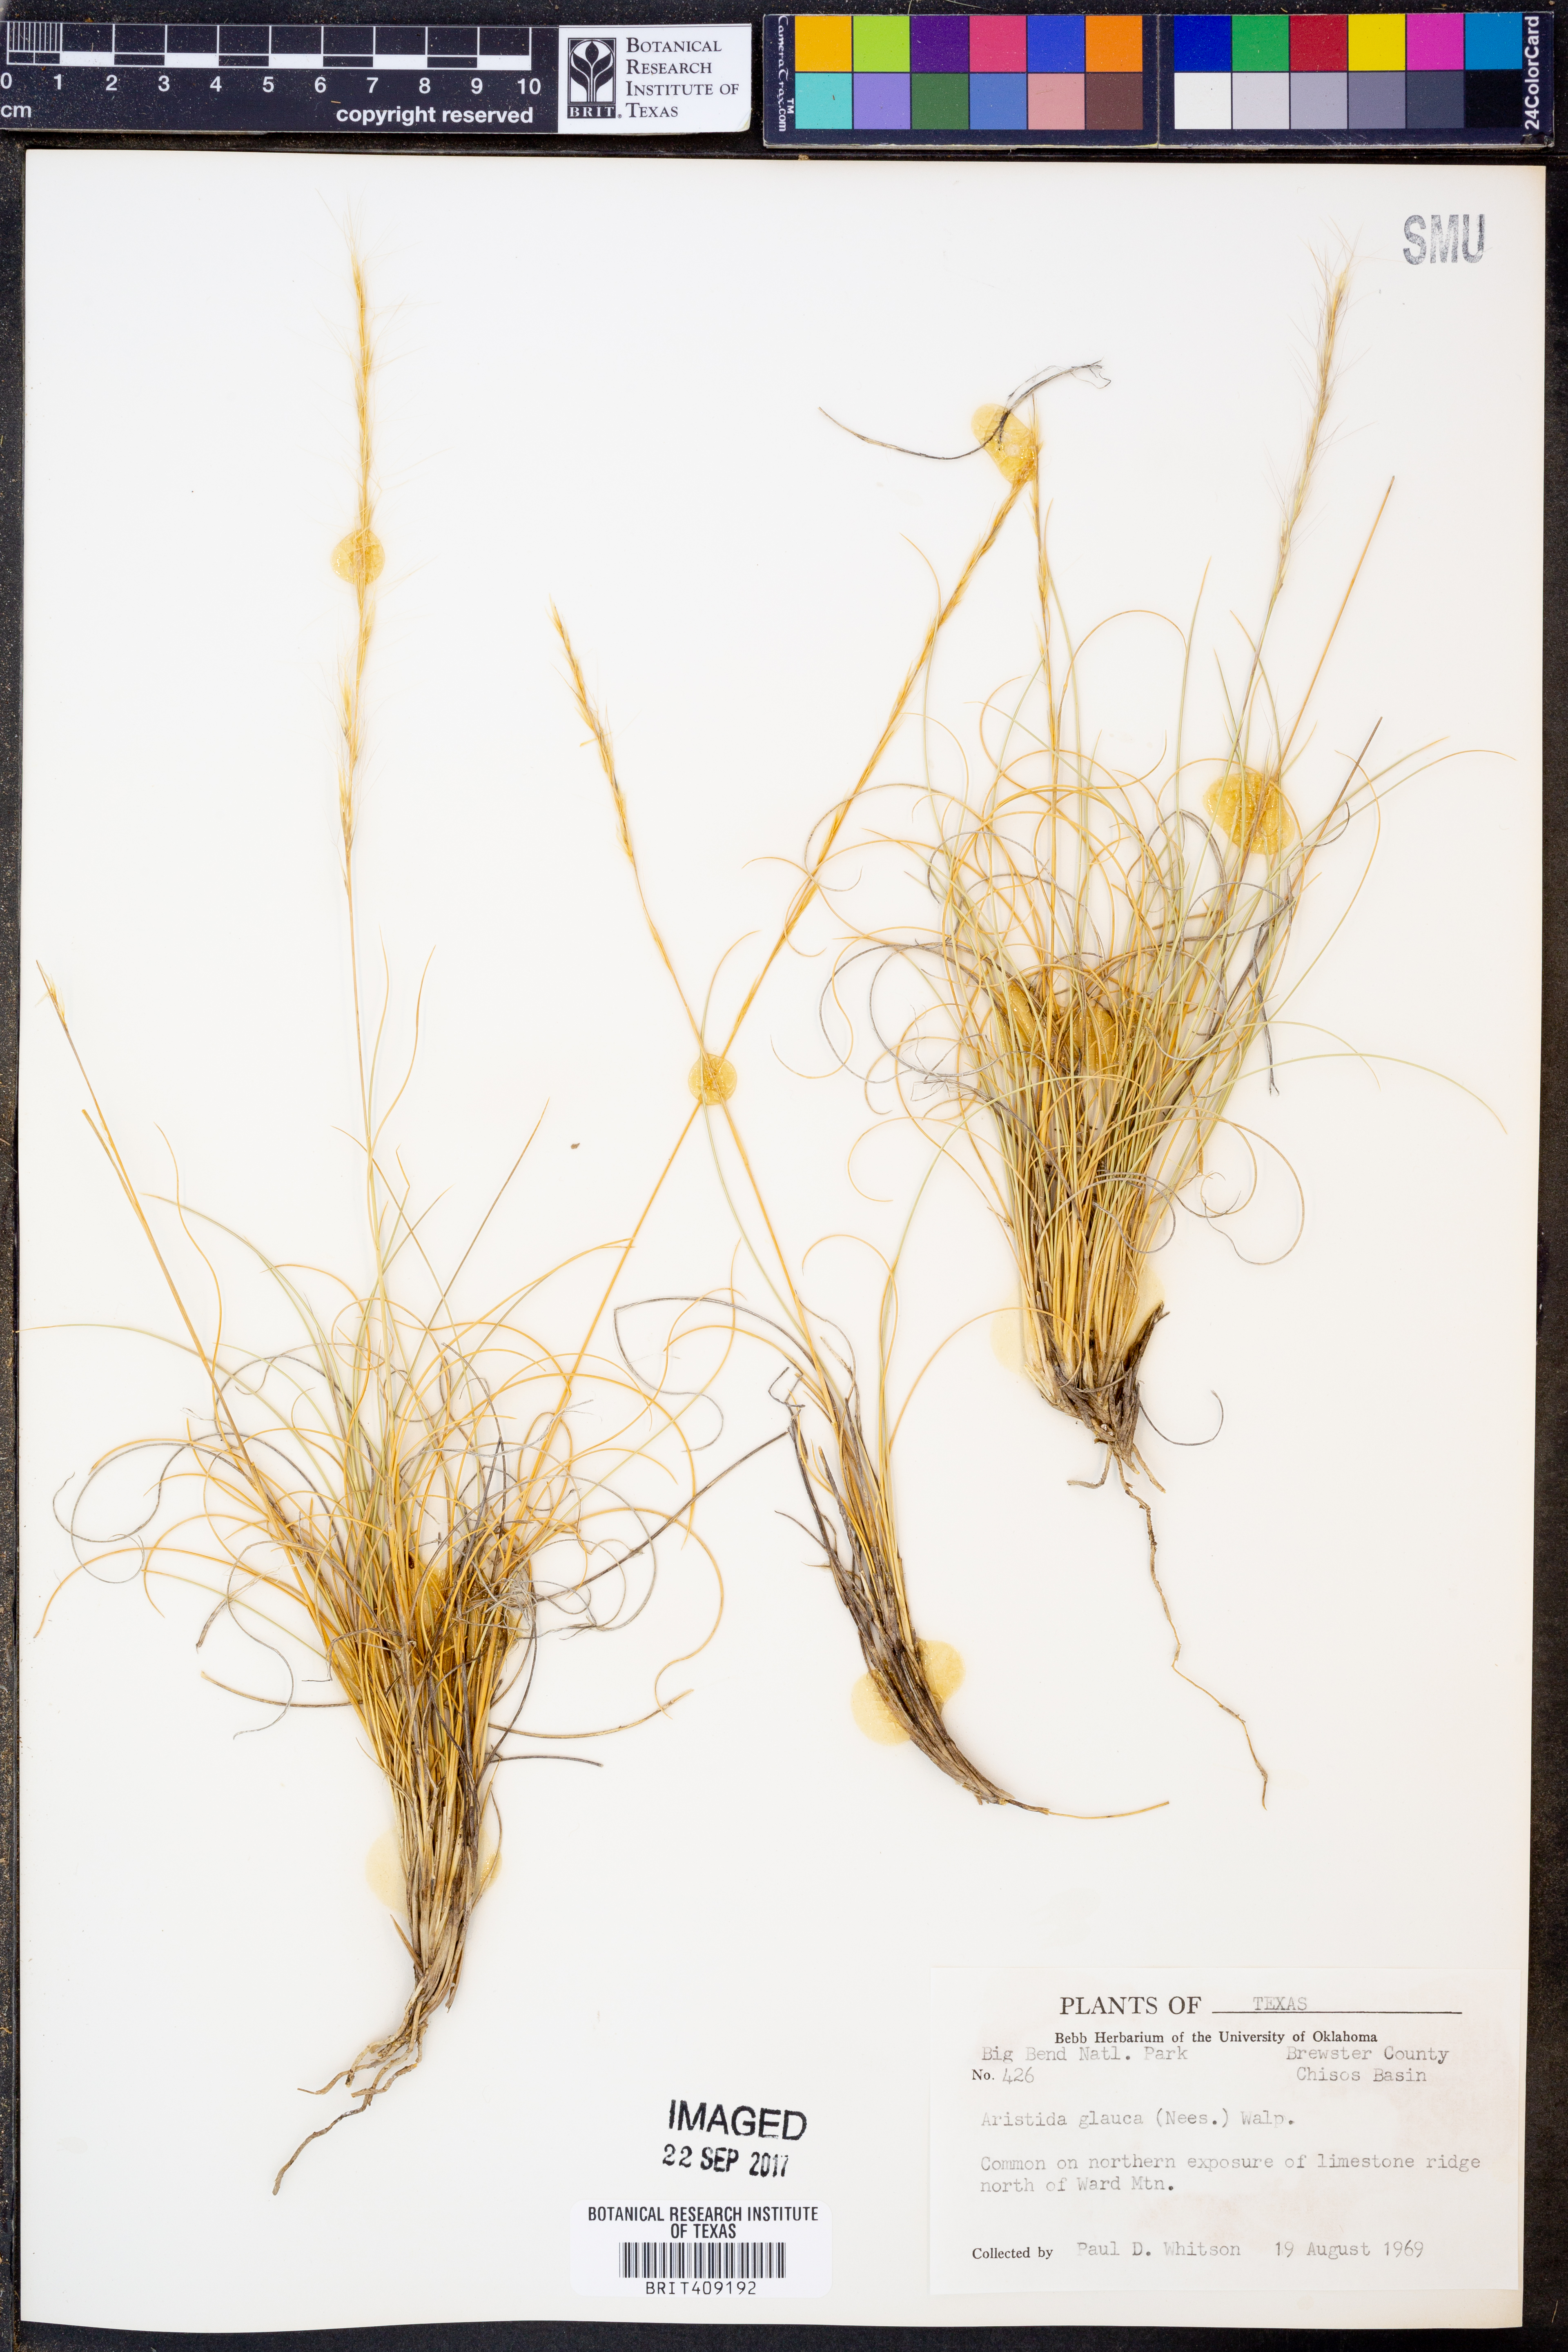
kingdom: Plantae
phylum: Tracheophyta
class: Liliopsida
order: Poales
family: Poaceae
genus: Aristida
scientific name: Aristida glauca
